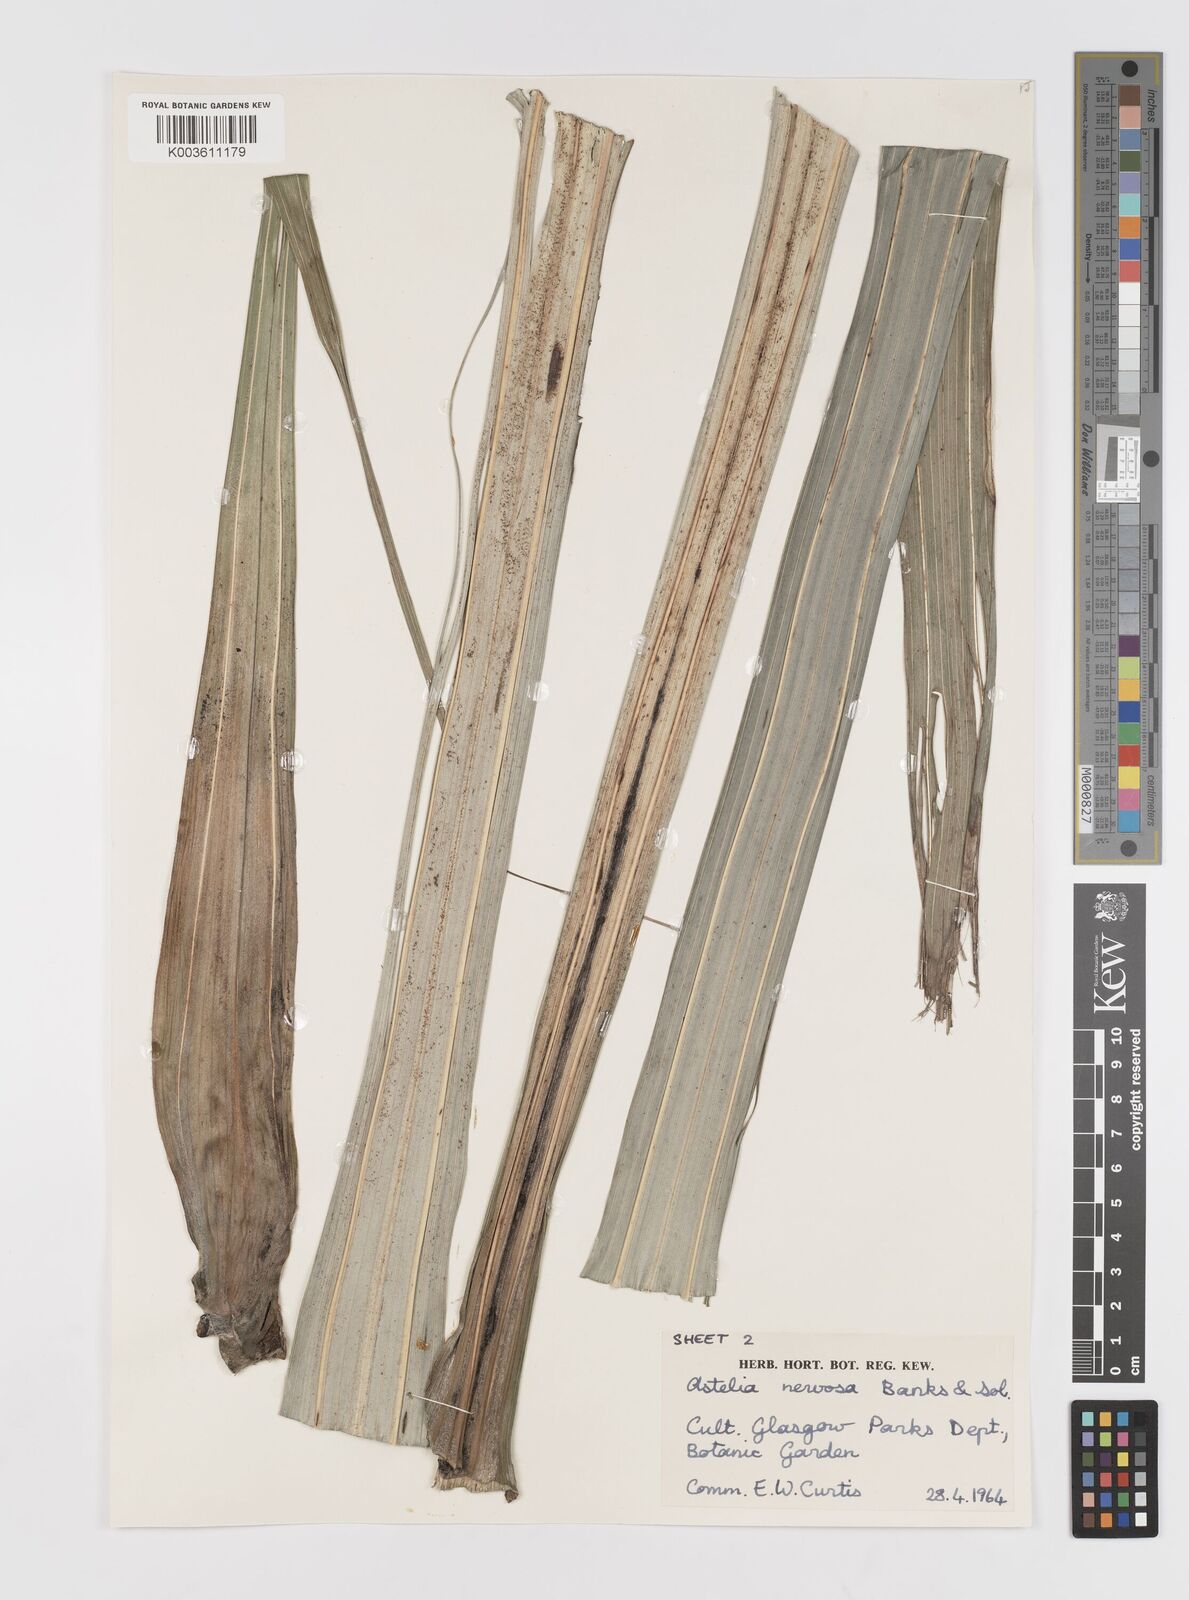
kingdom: Plantae
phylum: Tracheophyta
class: Liliopsida
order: Asparagales
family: Asteliaceae
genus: Astelia
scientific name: Astelia nervosa
